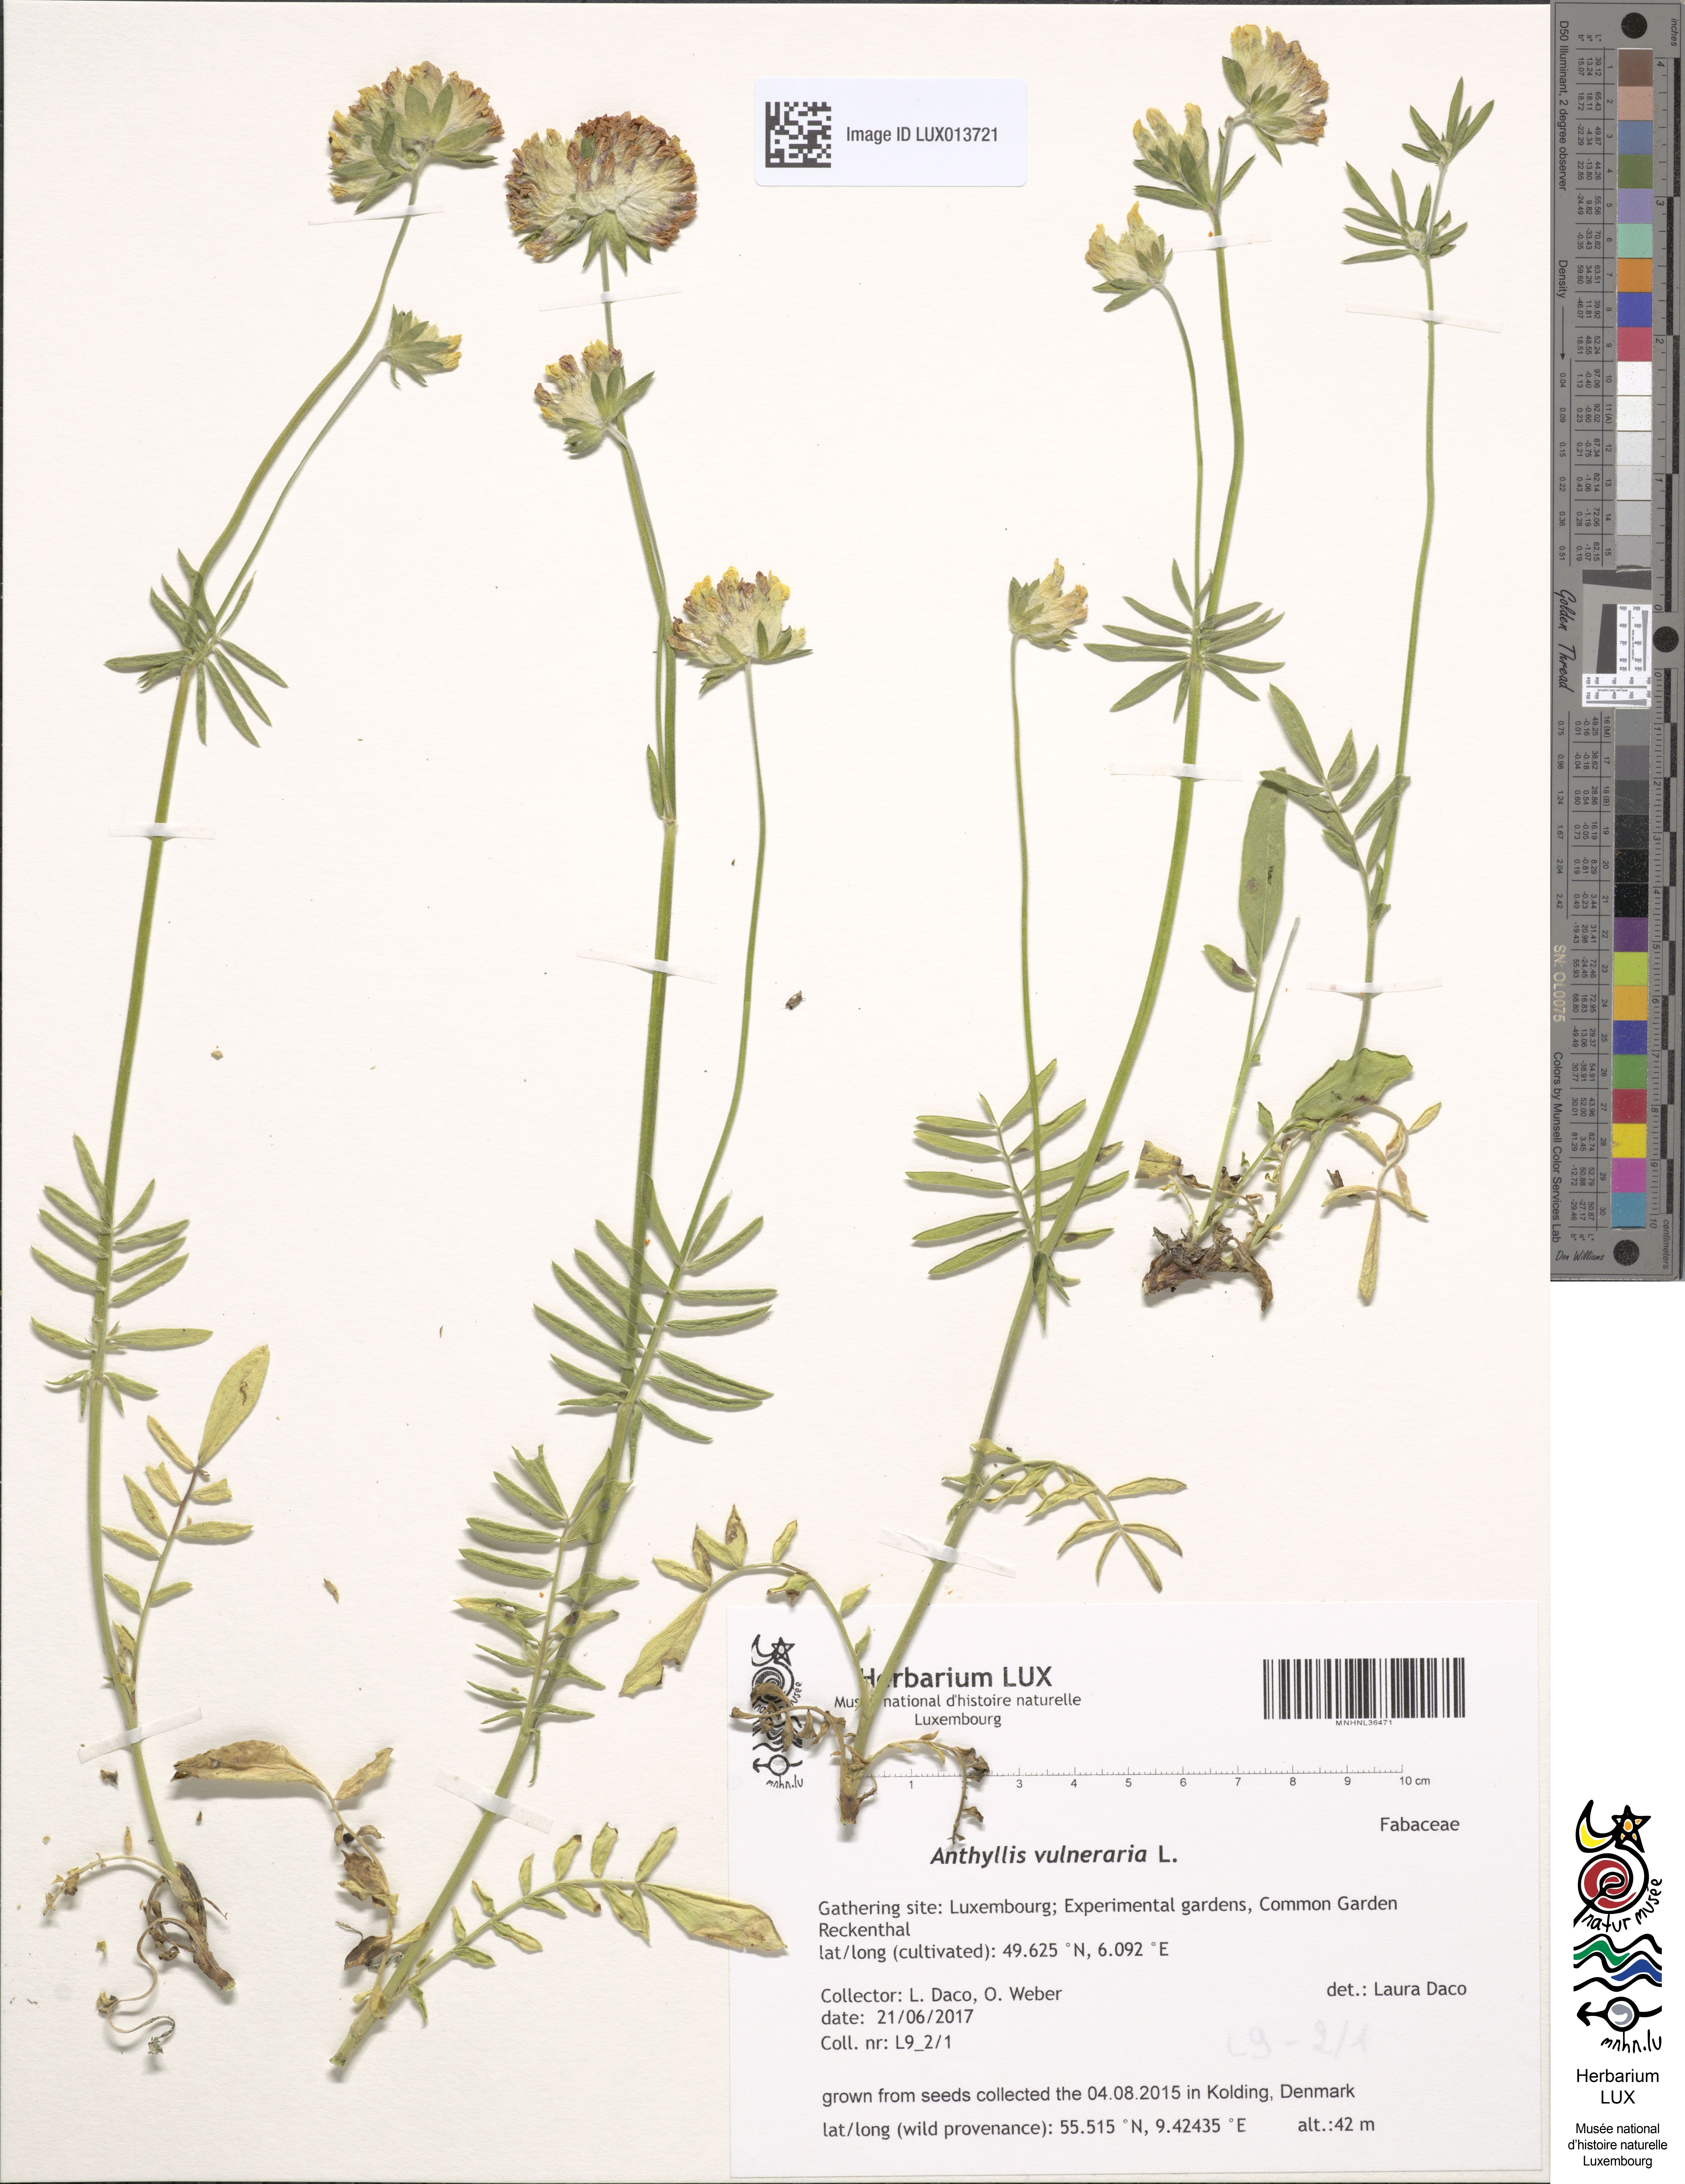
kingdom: Plantae
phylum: Tracheophyta
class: Magnoliopsida
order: Fabales
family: Fabaceae
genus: Anthyllis
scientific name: Anthyllis vulneraria
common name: Kidney vetch
